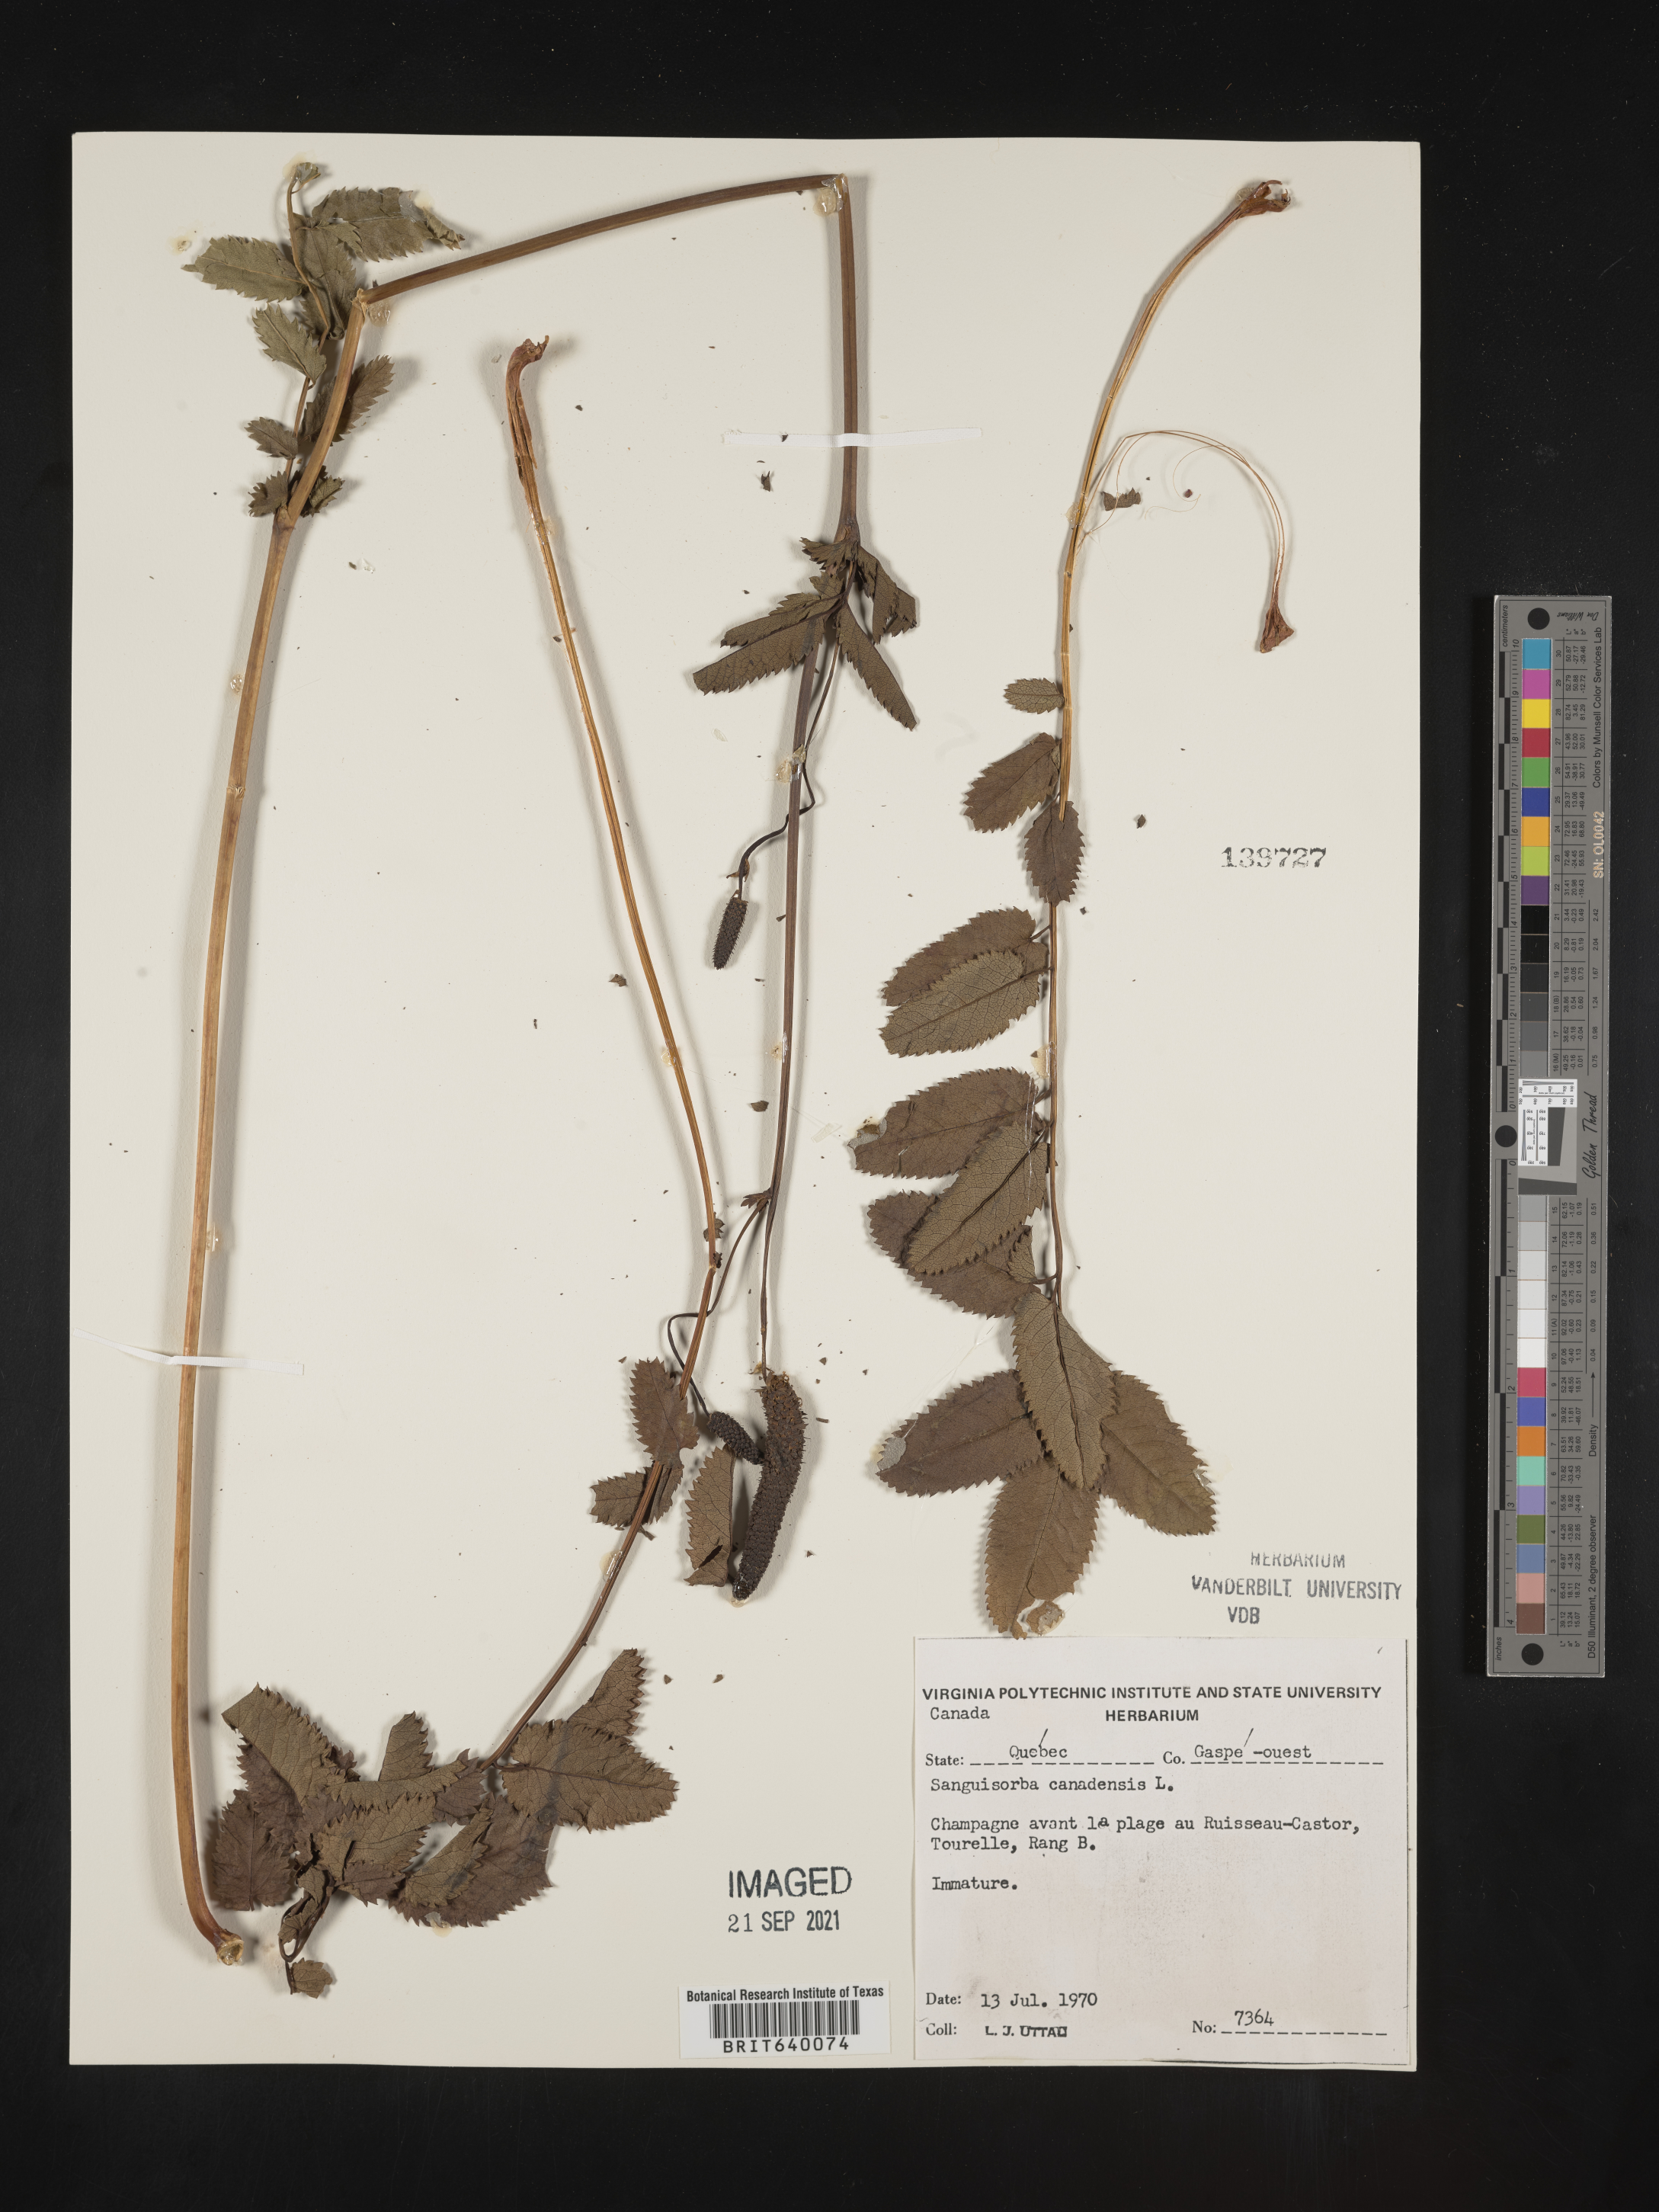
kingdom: Plantae
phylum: Tracheophyta
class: Magnoliopsida
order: Rosales
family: Rosaceae
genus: Sanguisorba
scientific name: Sanguisorba
